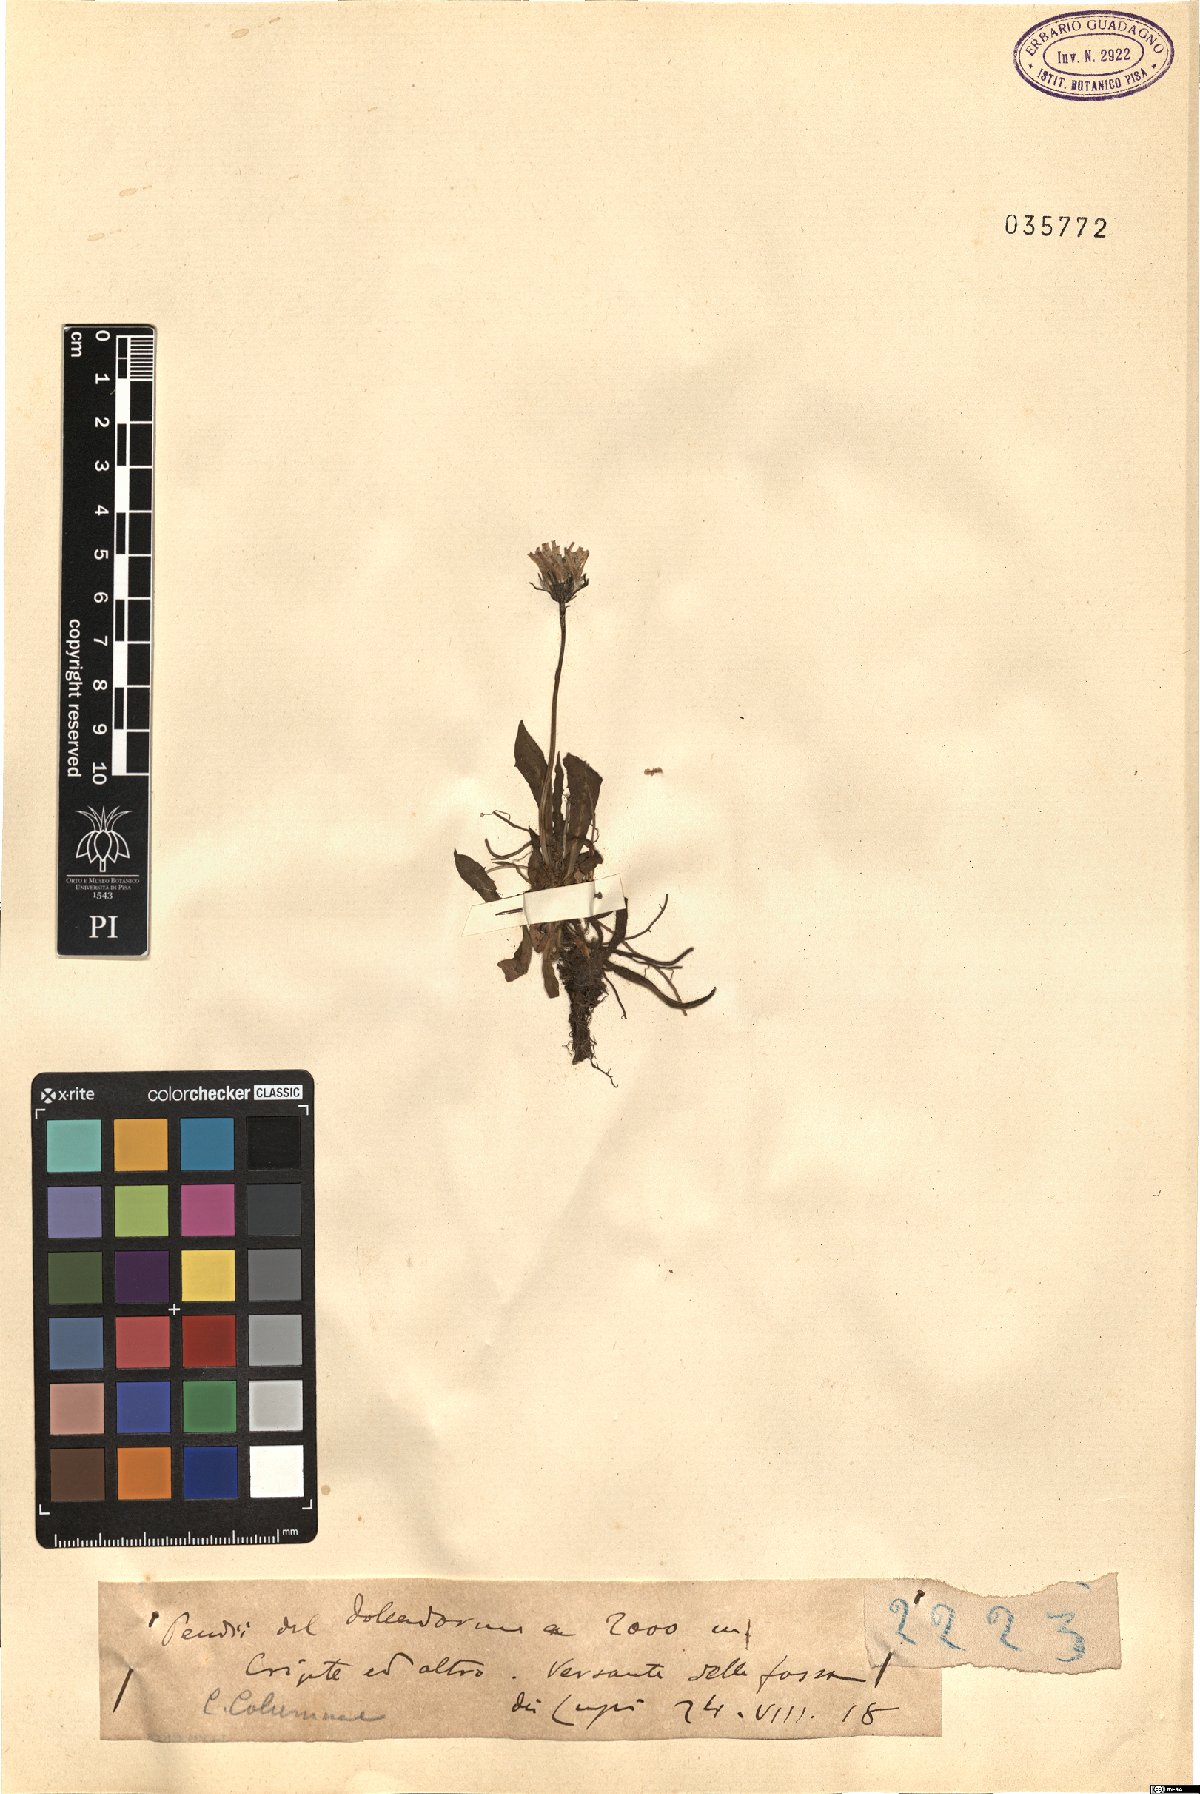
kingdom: Plantae
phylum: Tracheophyta
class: Magnoliopsida
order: Asterales
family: Asteraceae
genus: Crepis
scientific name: Crepis aurea
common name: Golden hawk's-beard
